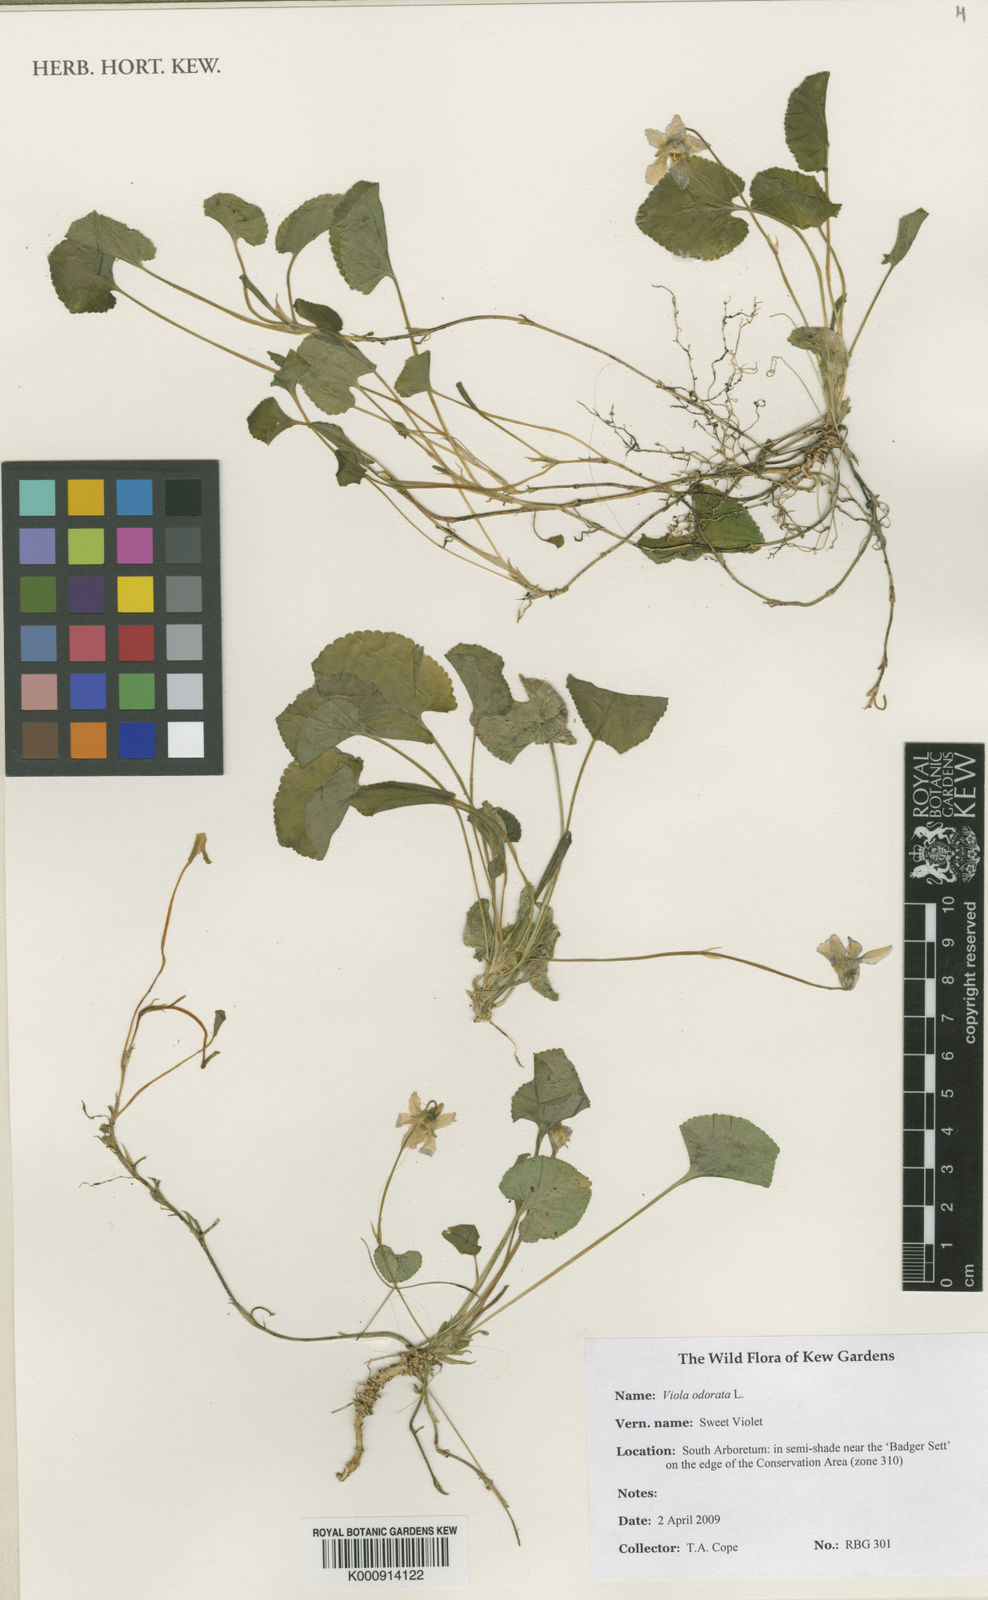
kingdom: Plantae
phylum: Tracheophyta
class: Magnoliopsida
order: Malpighiales
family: Violaceae
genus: Viola
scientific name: Viola odorata
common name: Sweet violet
